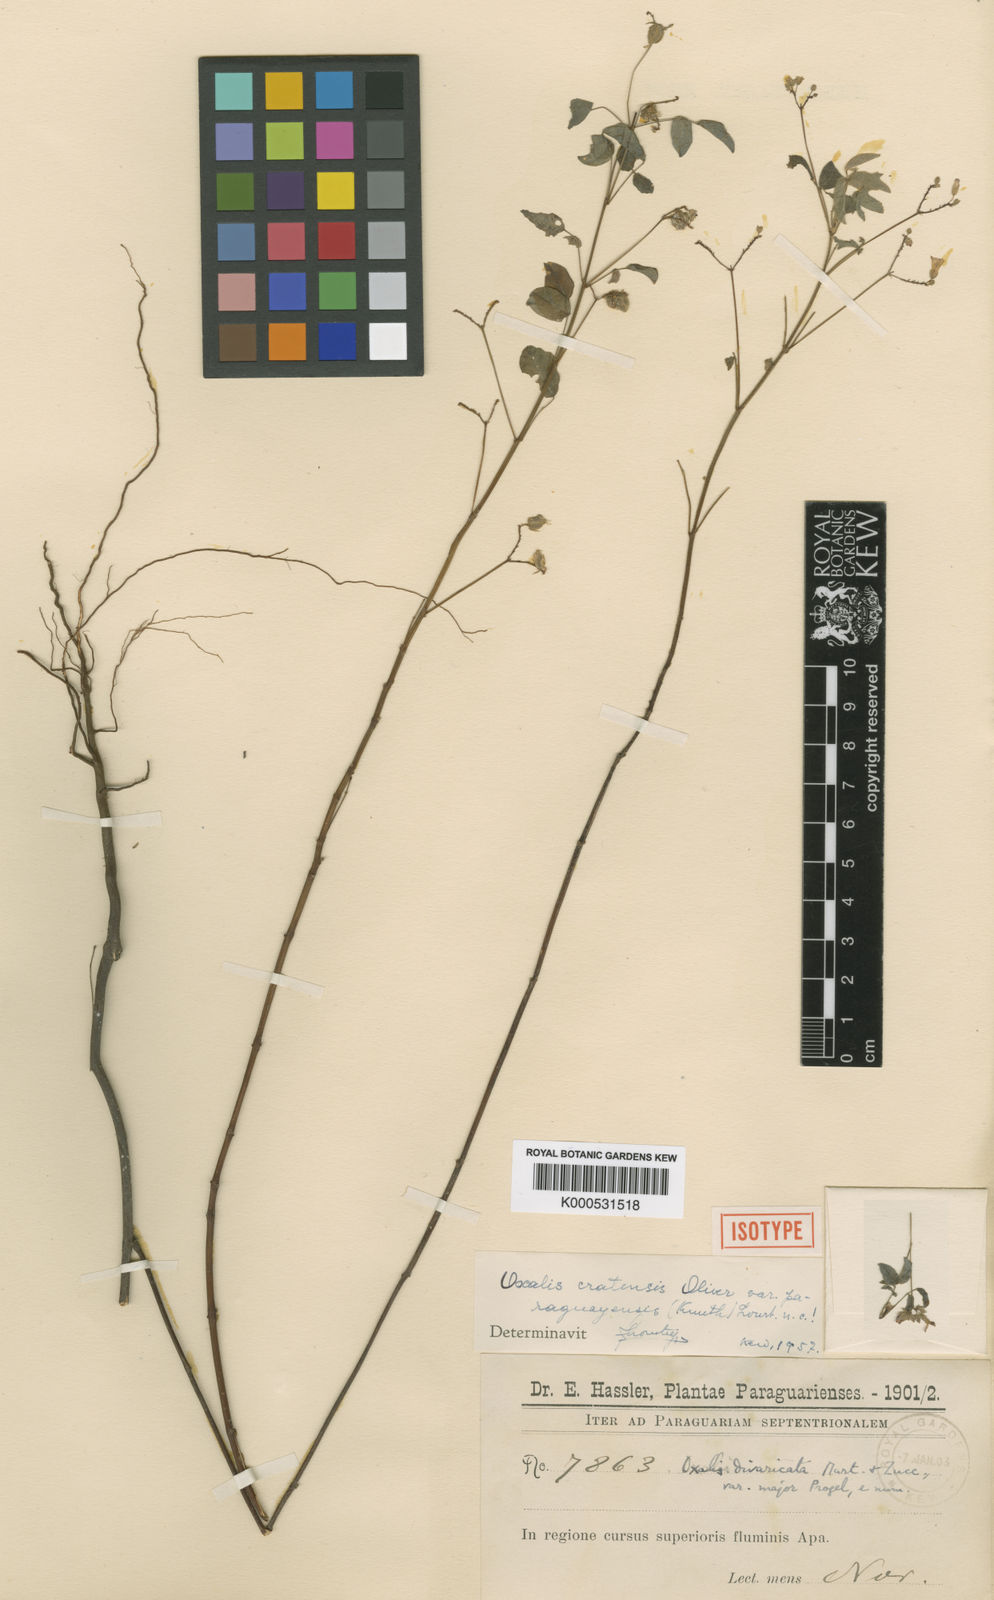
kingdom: Plantae
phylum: Tracheophyta
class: Magnoliopsida
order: Oxalidales
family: Oxalidaceae
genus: Oxalis
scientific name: Oxalis cratensis
